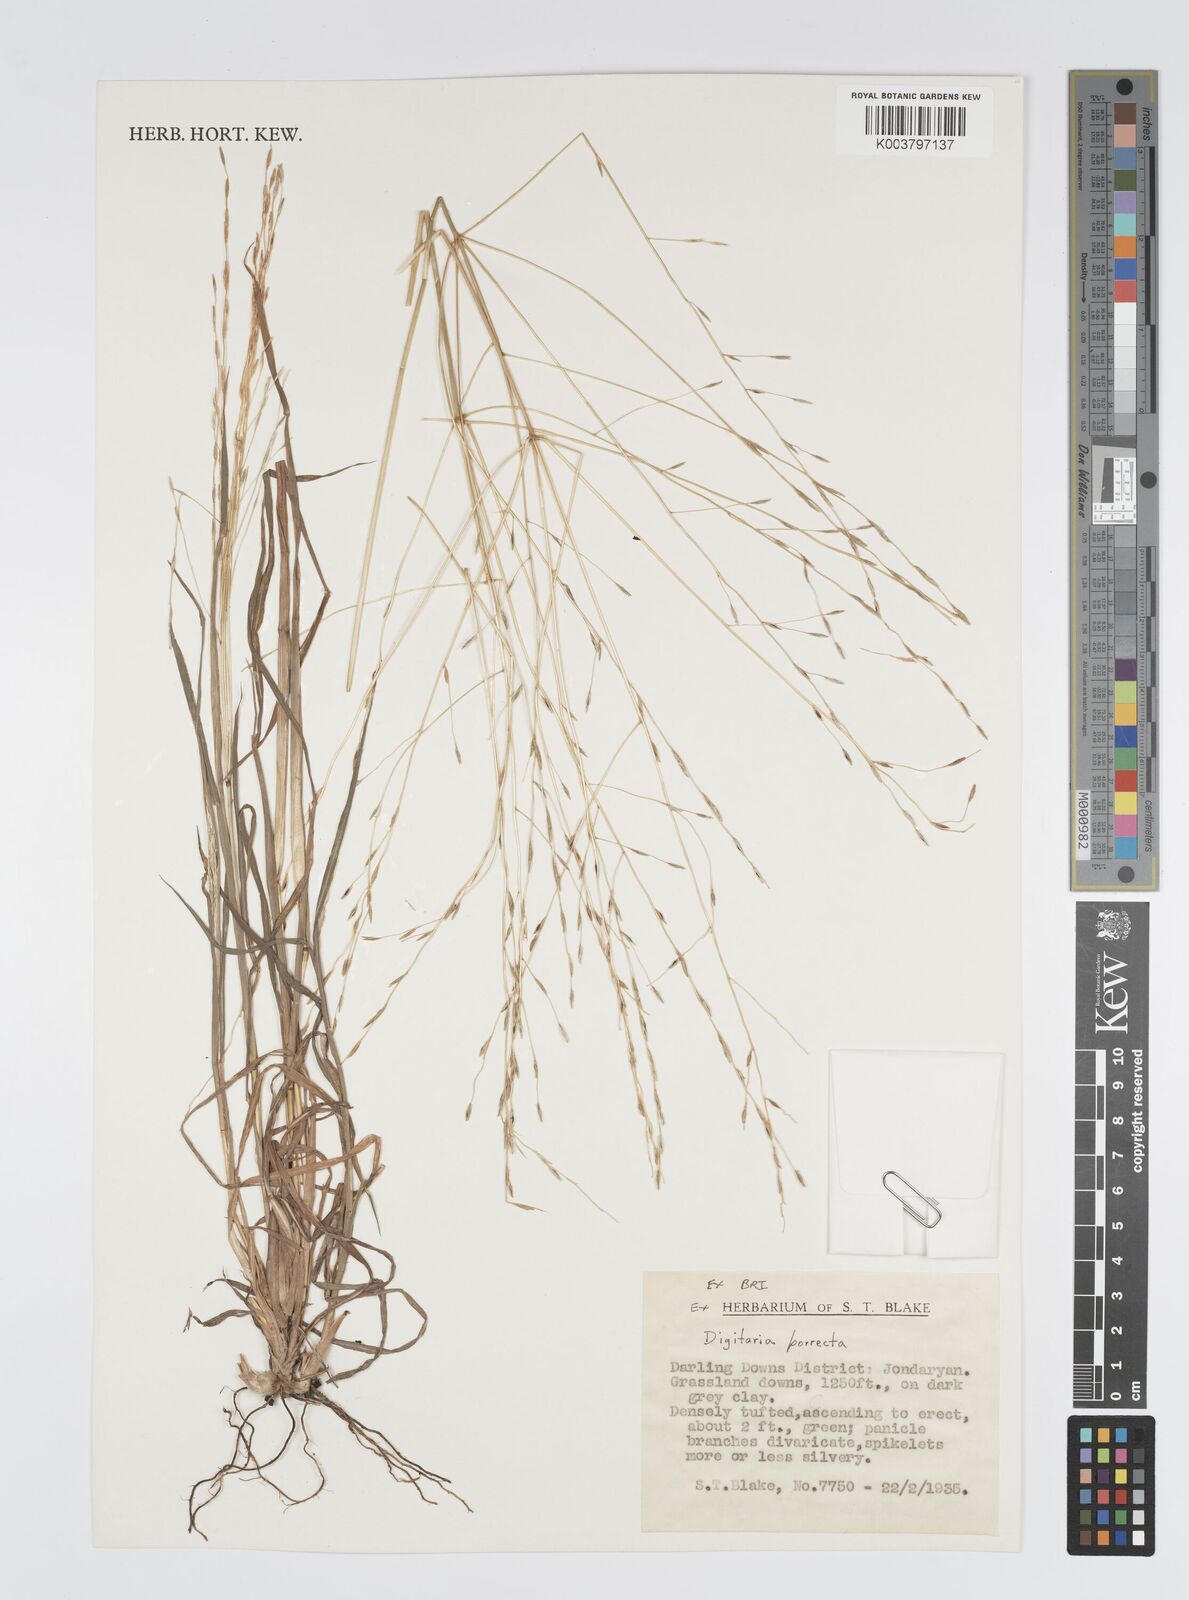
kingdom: Plantae
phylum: Tracheophyta
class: Liliopsida
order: Poales
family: Poaceae
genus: Digitaria
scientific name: Digitaria porrecta
